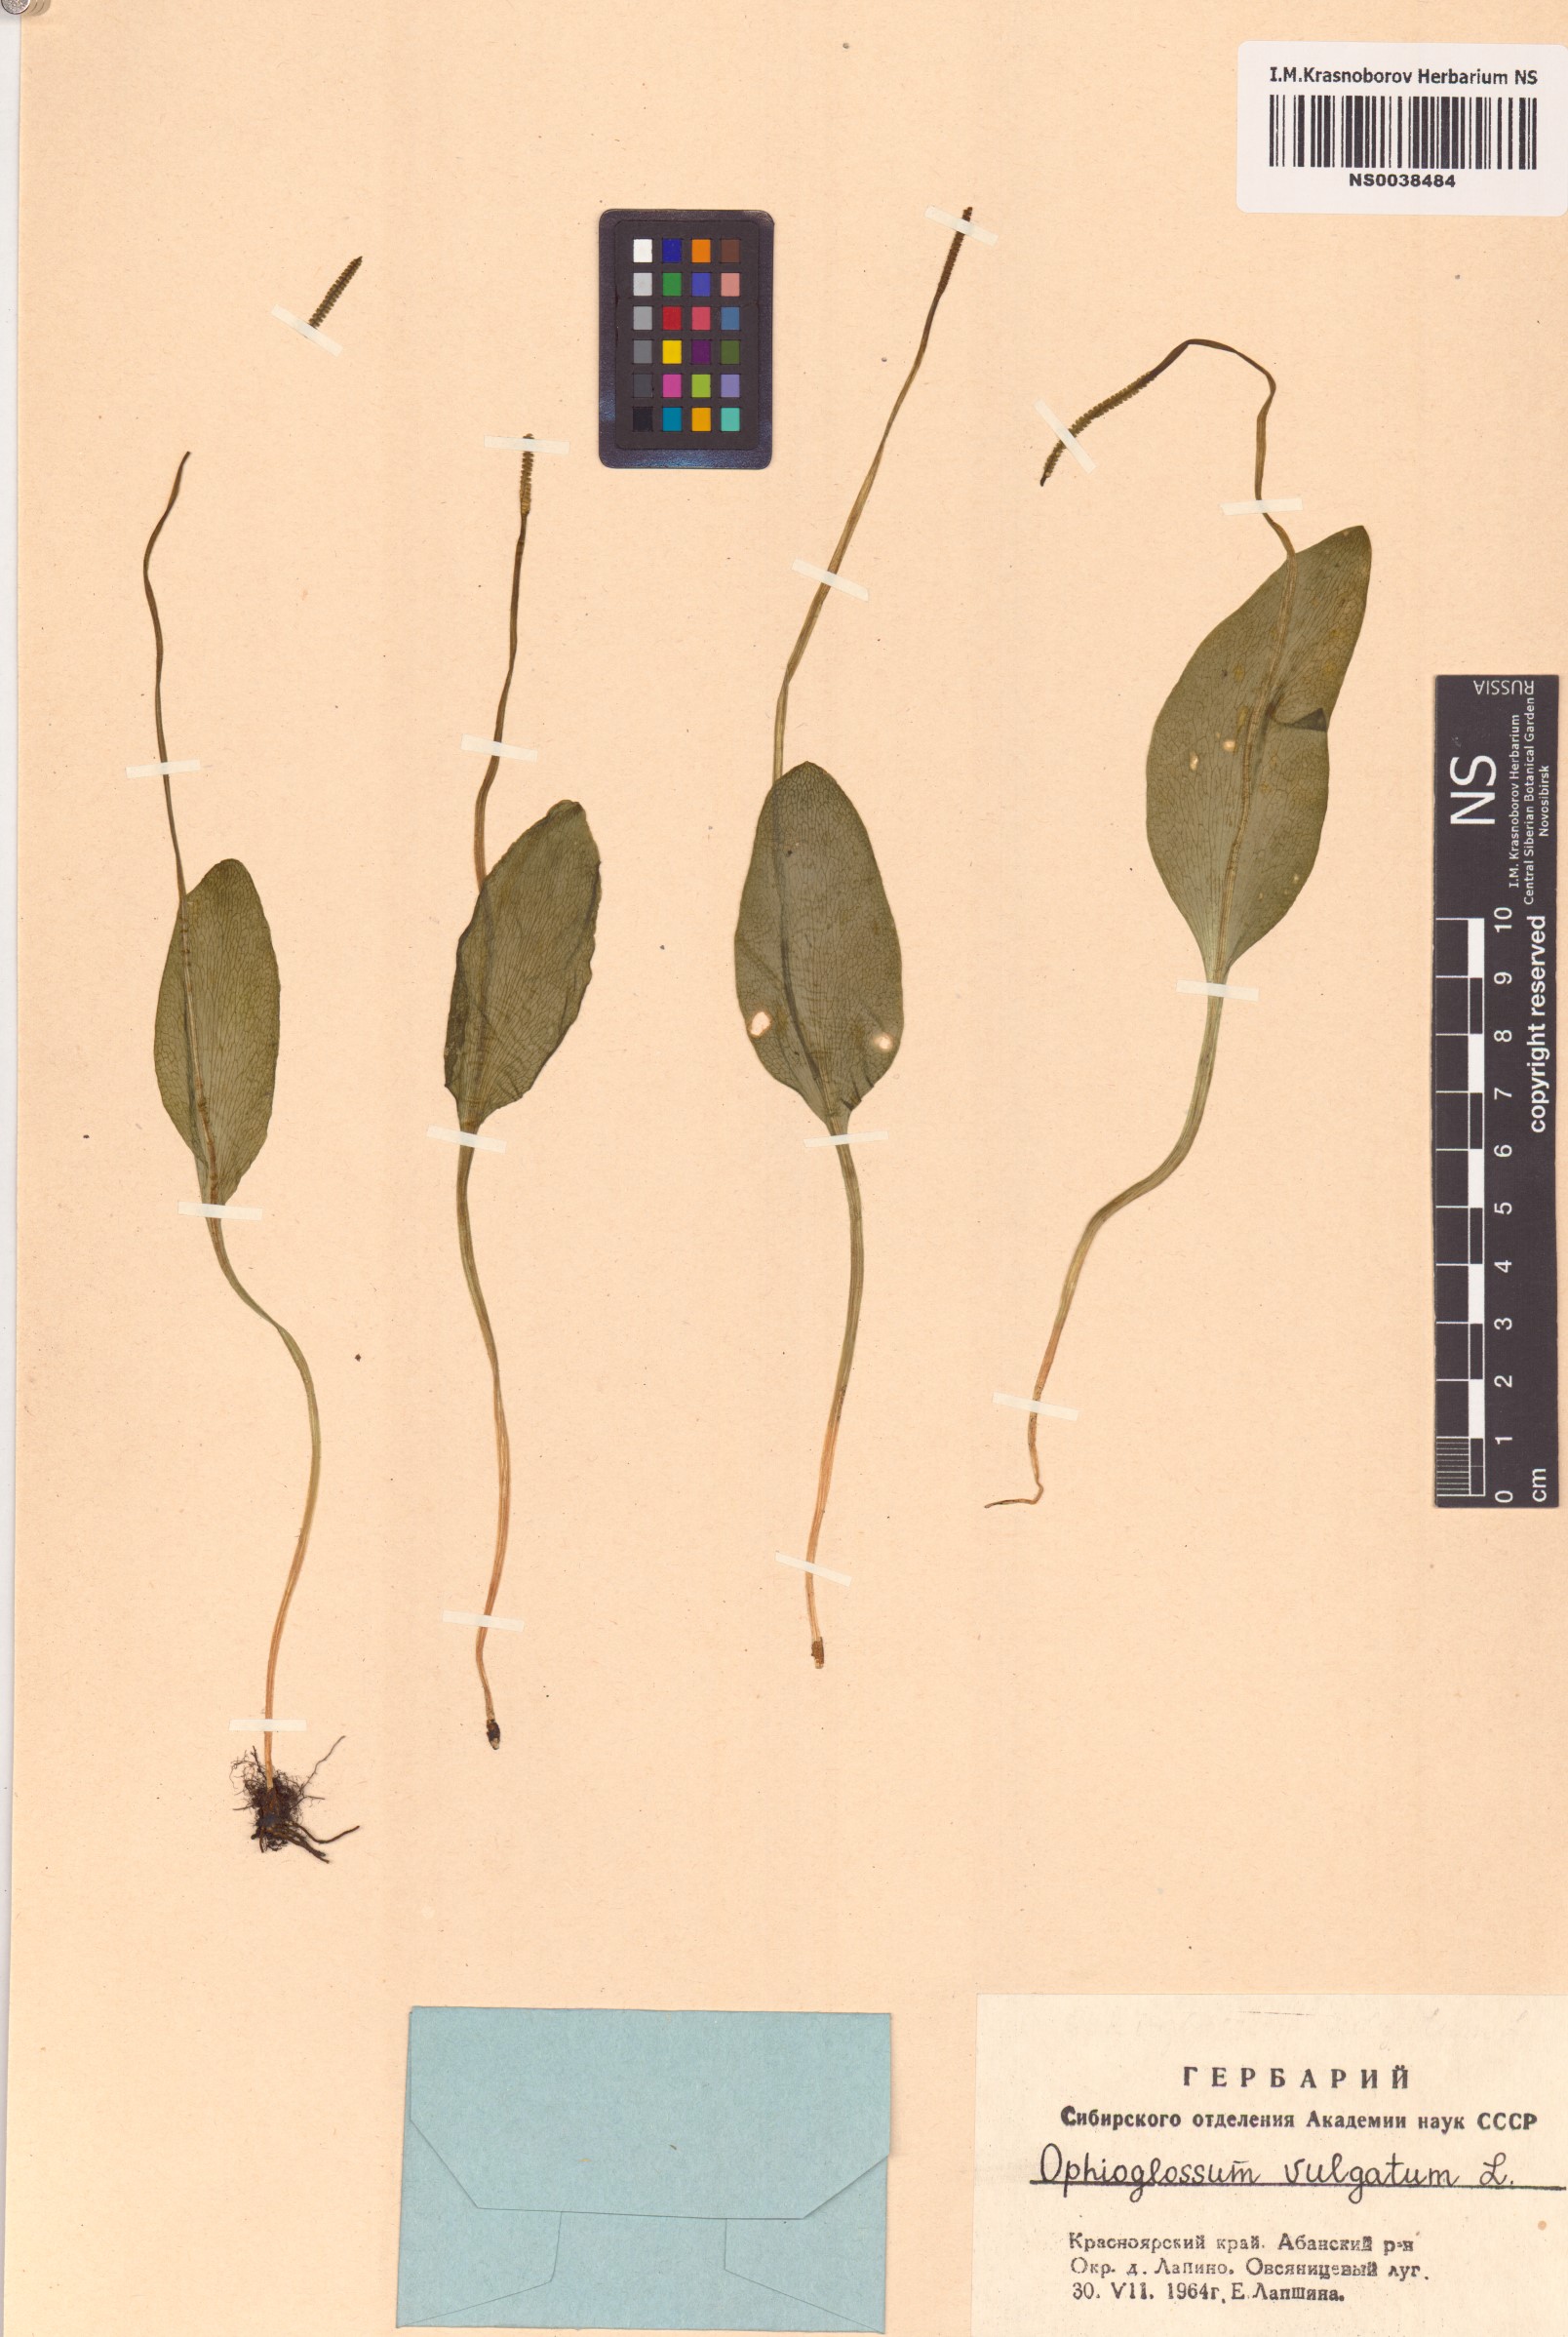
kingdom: Plantae
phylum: Tracheophyta
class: Polypodiopsida
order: Ophioglossales
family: Ophioglossaceae
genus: Ophioglossum
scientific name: Ophioglossum vulgatum
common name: Adder's-tongue
